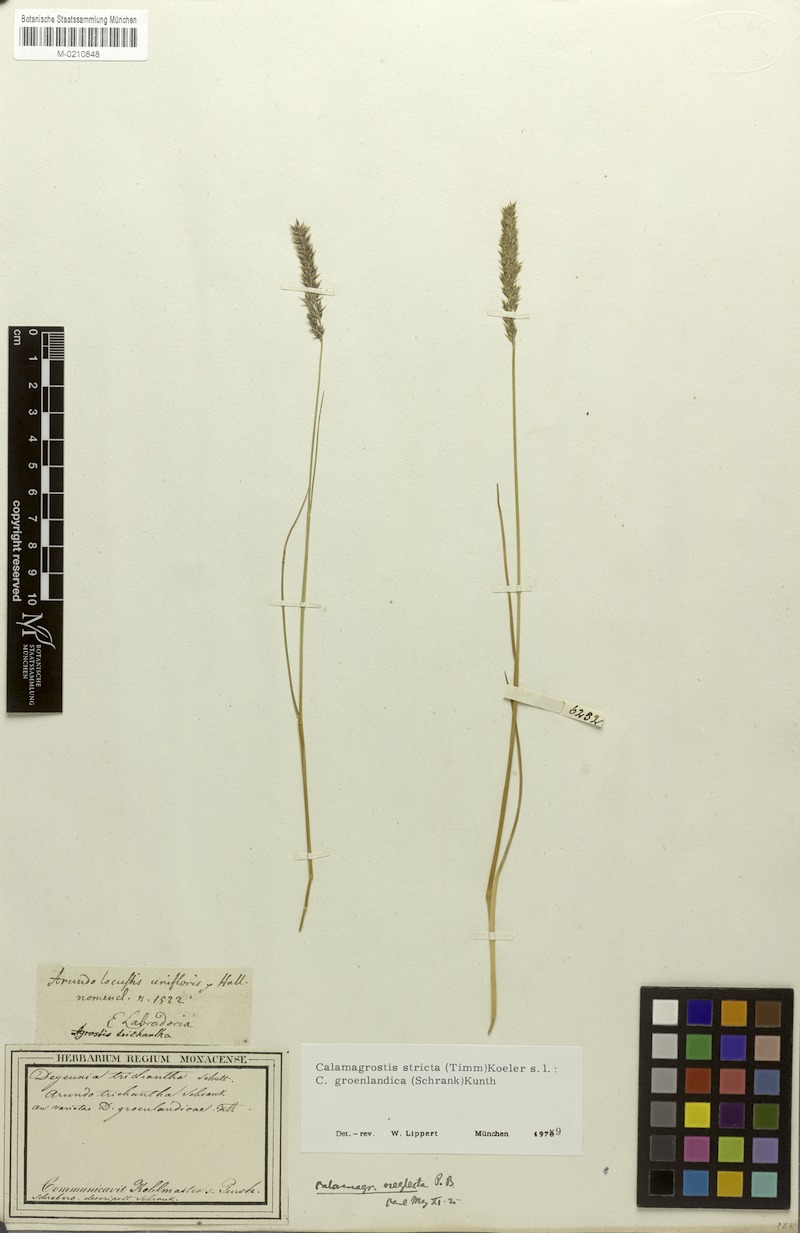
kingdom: Plantae
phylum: Tracheophyta
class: Liliopsida
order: Poales
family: Poaceae
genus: Calamagrostis
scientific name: Calamagrostis stricta
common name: Narrow small-reed
